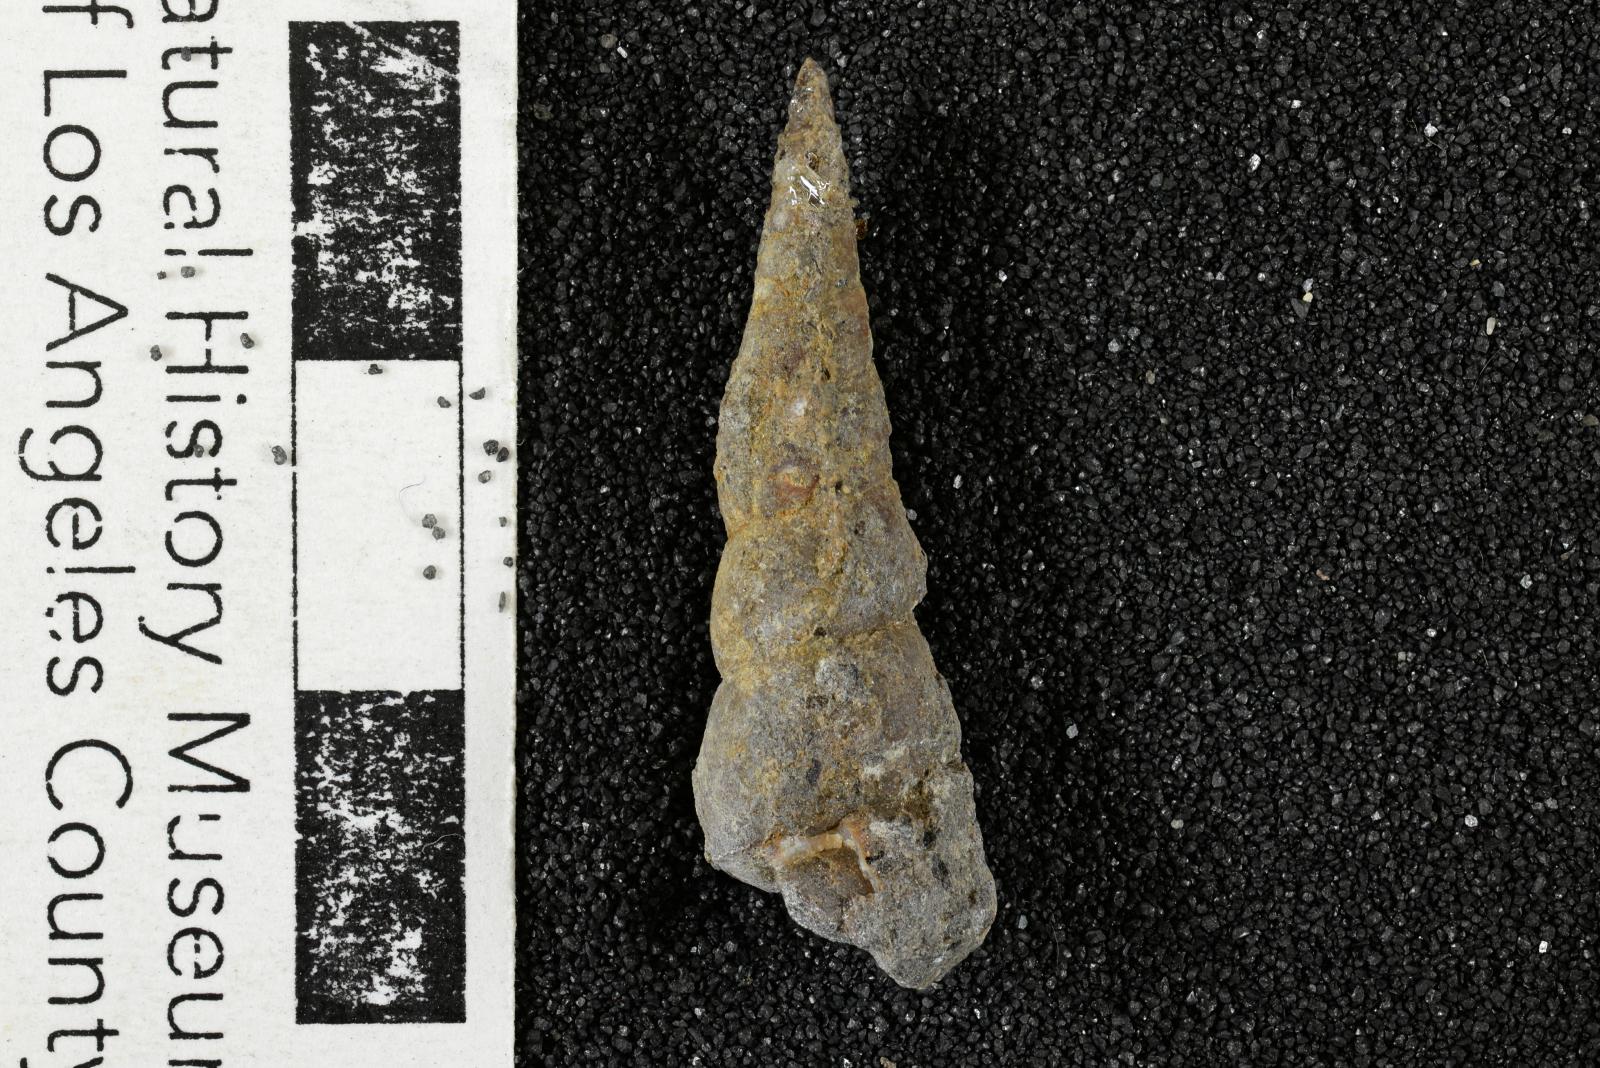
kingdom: Animalia
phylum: Mollusca
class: Gastropoda
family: Turritellidae
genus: Turritella
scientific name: Turritella ossa
